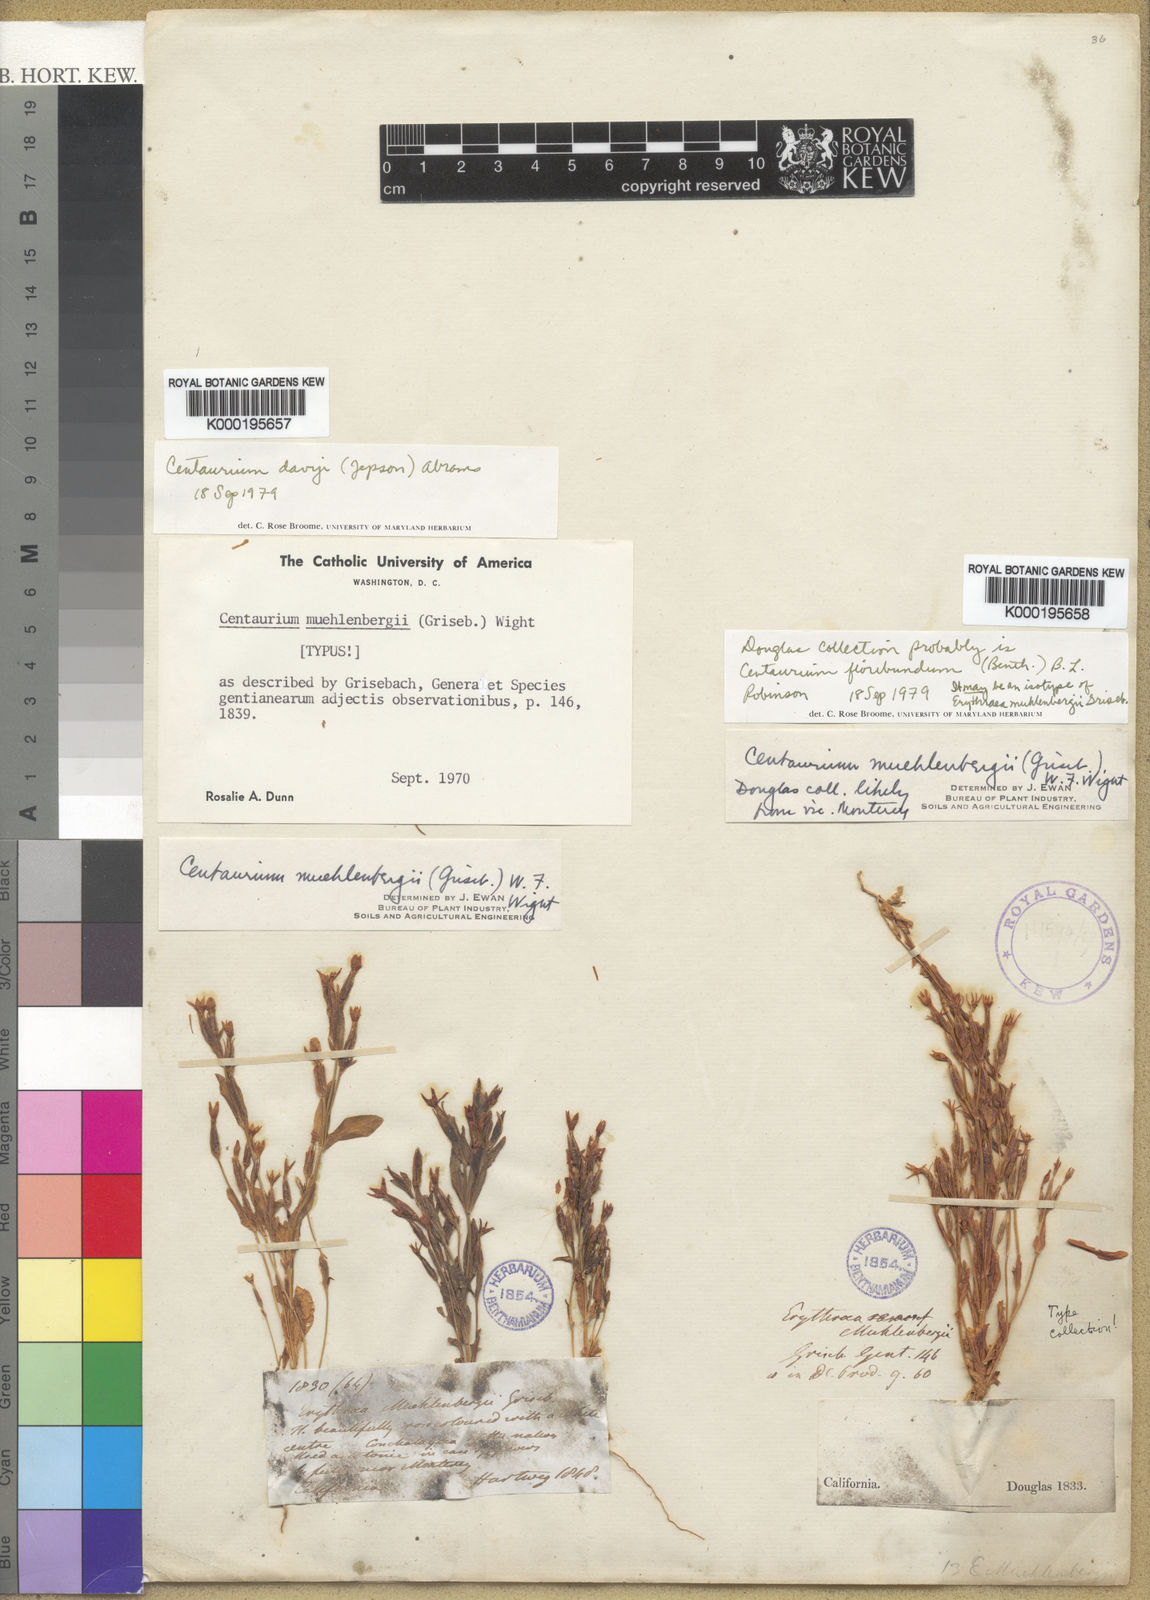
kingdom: Plantae
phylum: Tracheophyta
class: Magnoliopsida
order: Gentianales
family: Gentianaceae
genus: Centaurium
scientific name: Centaurium
